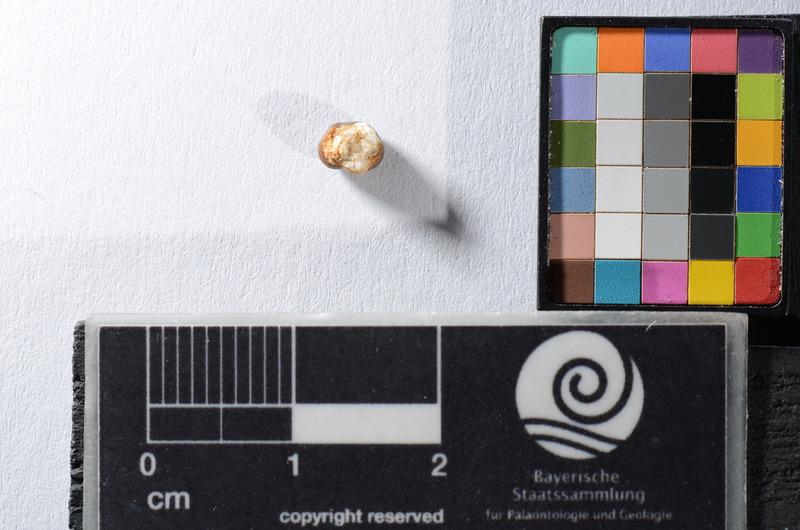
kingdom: Animalia
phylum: Chordata
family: Pycnodontidae
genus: Anomoeodus
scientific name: Anomoeodus
